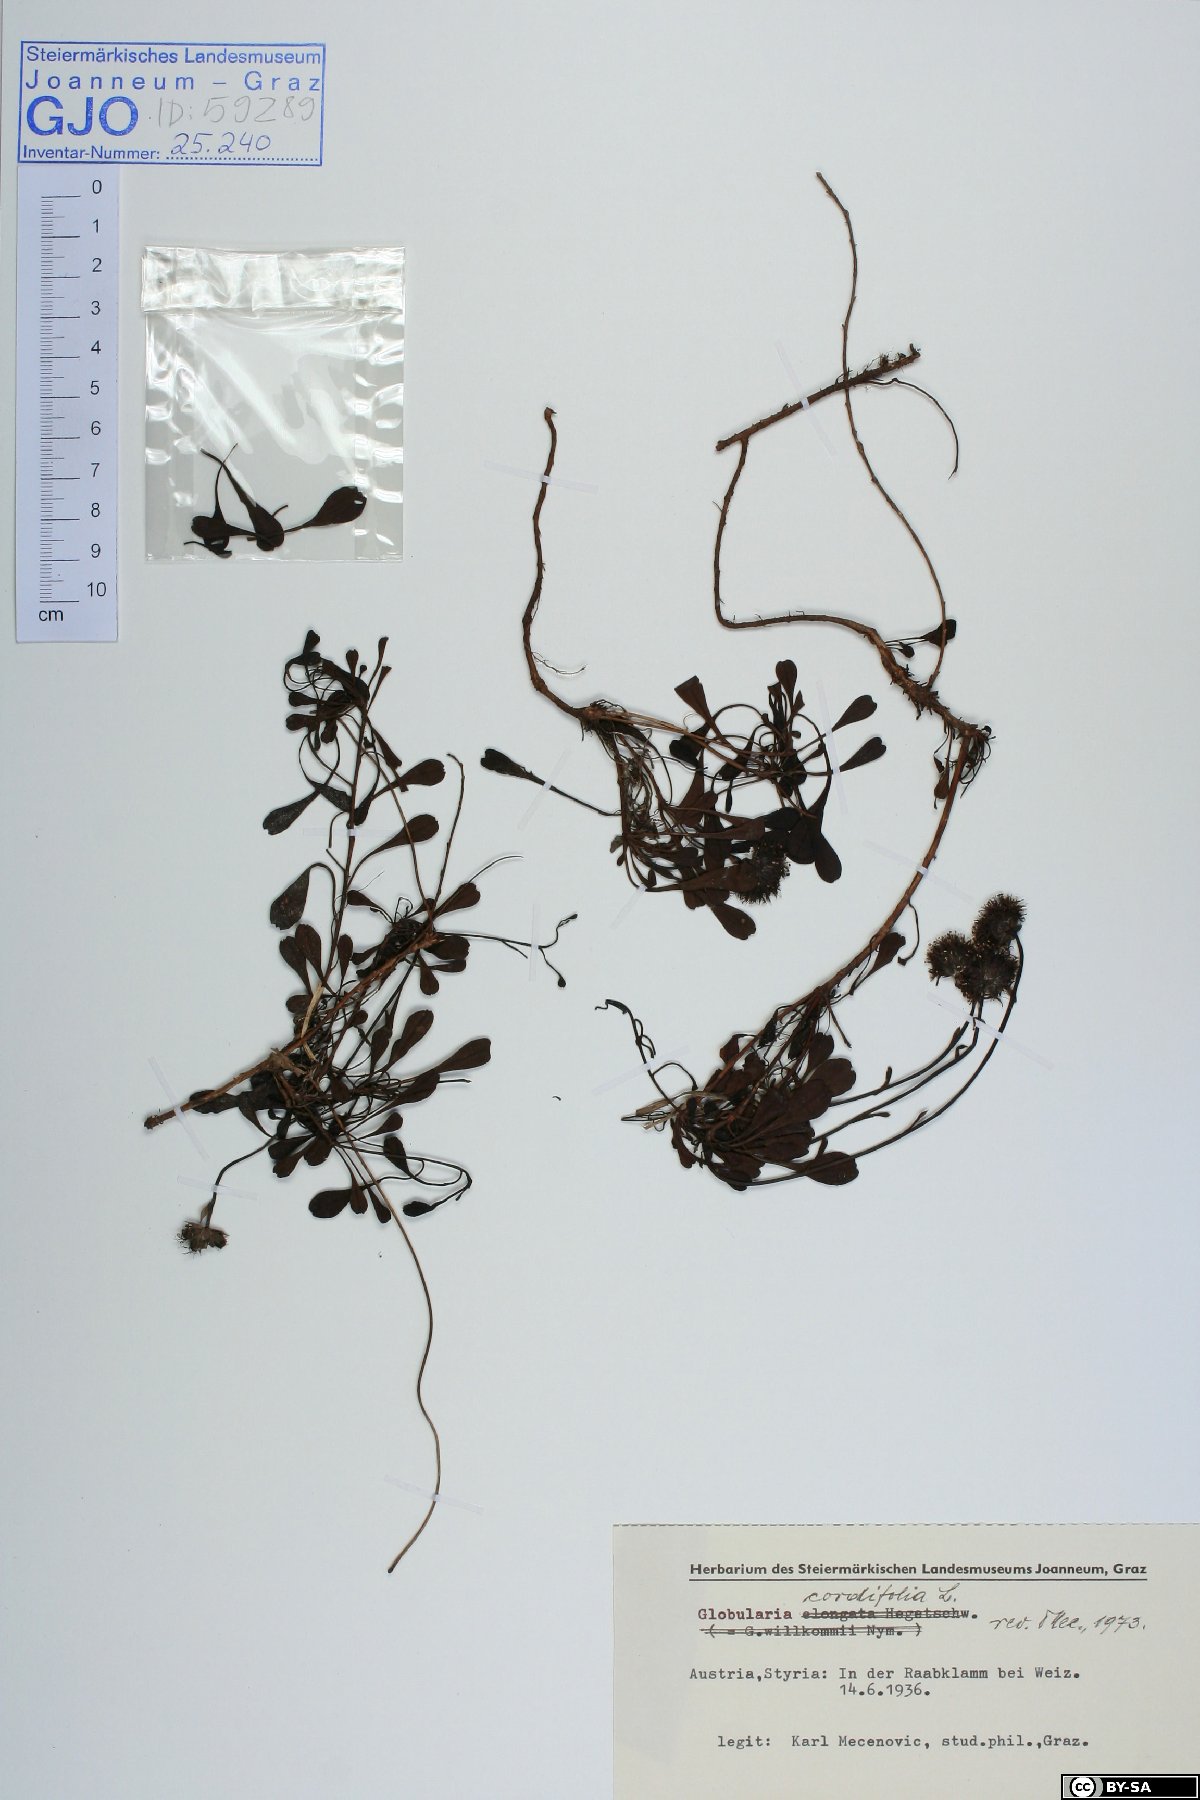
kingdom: Plantae
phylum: Tracheophyta
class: Magnoliopsida
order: Lamiales
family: Plantaginaceae
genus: Globularia
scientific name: Globularia cordifolia
